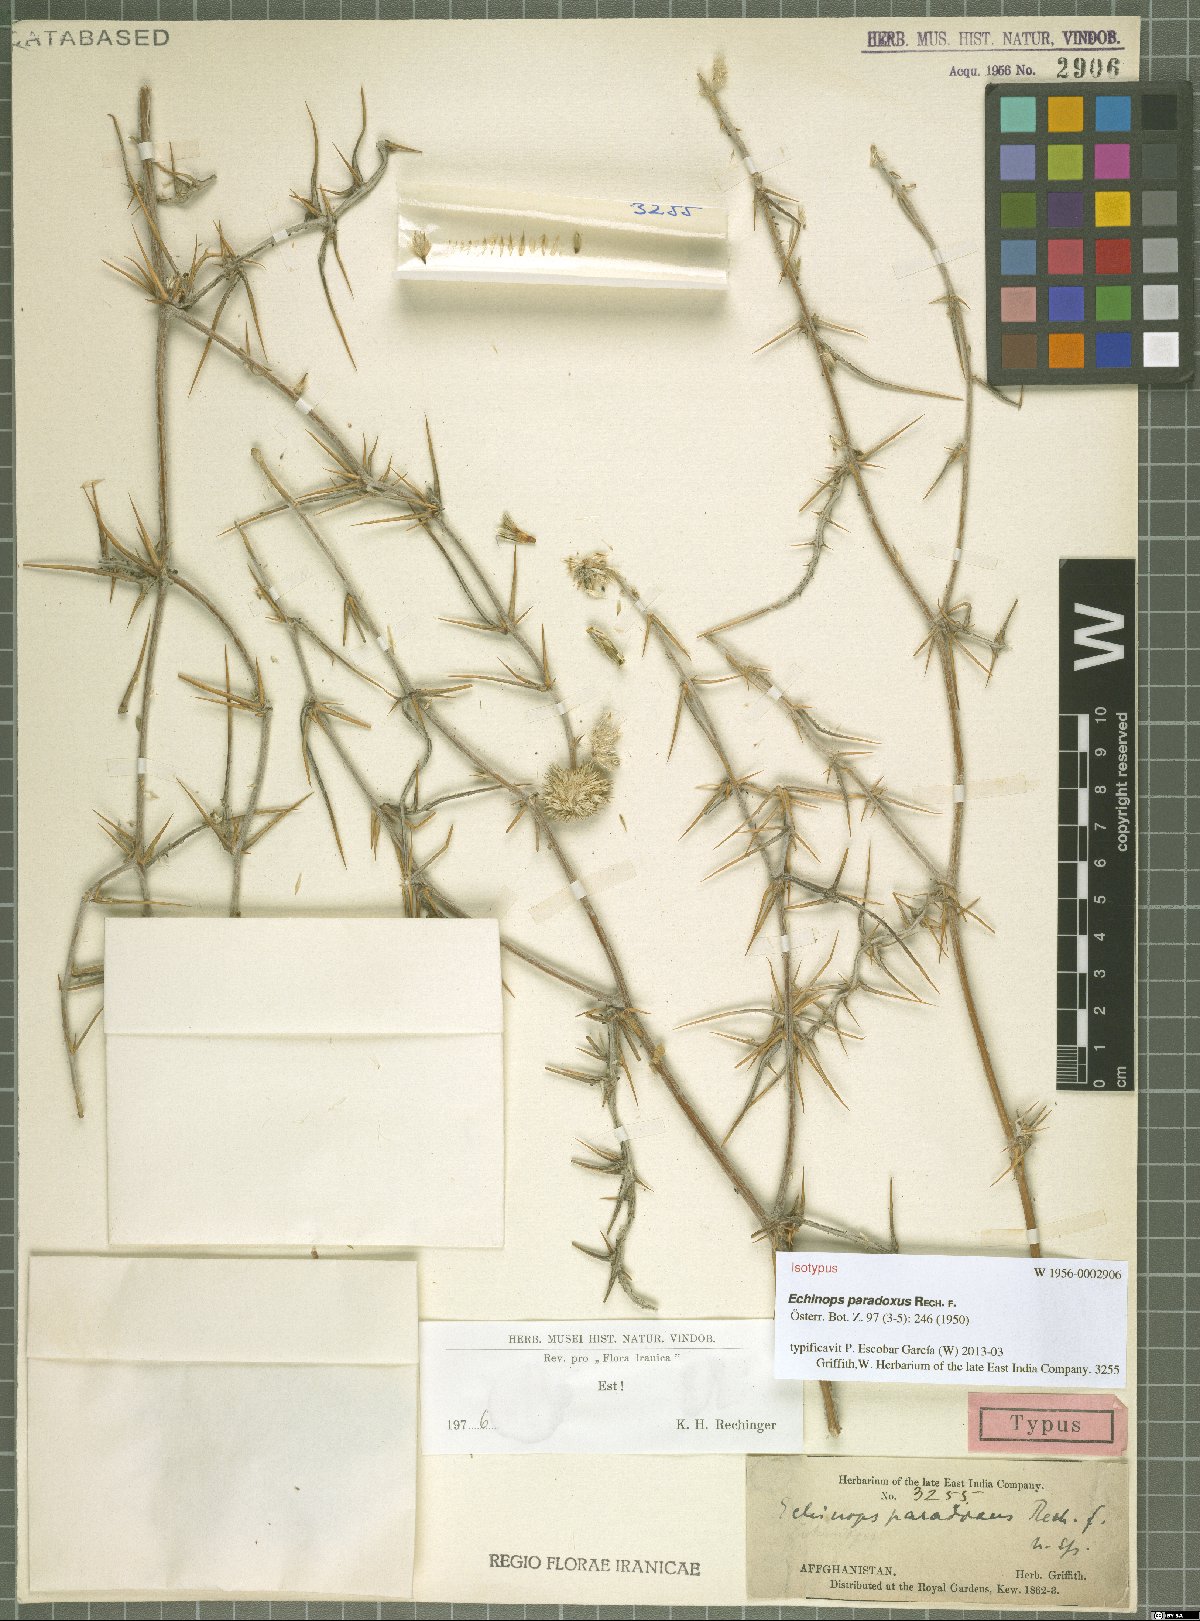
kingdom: Plantae
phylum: Tracheophyta
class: Magnoliopsida
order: Asterales
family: Asteraceae
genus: Echinops
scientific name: Echinops paradoxus
